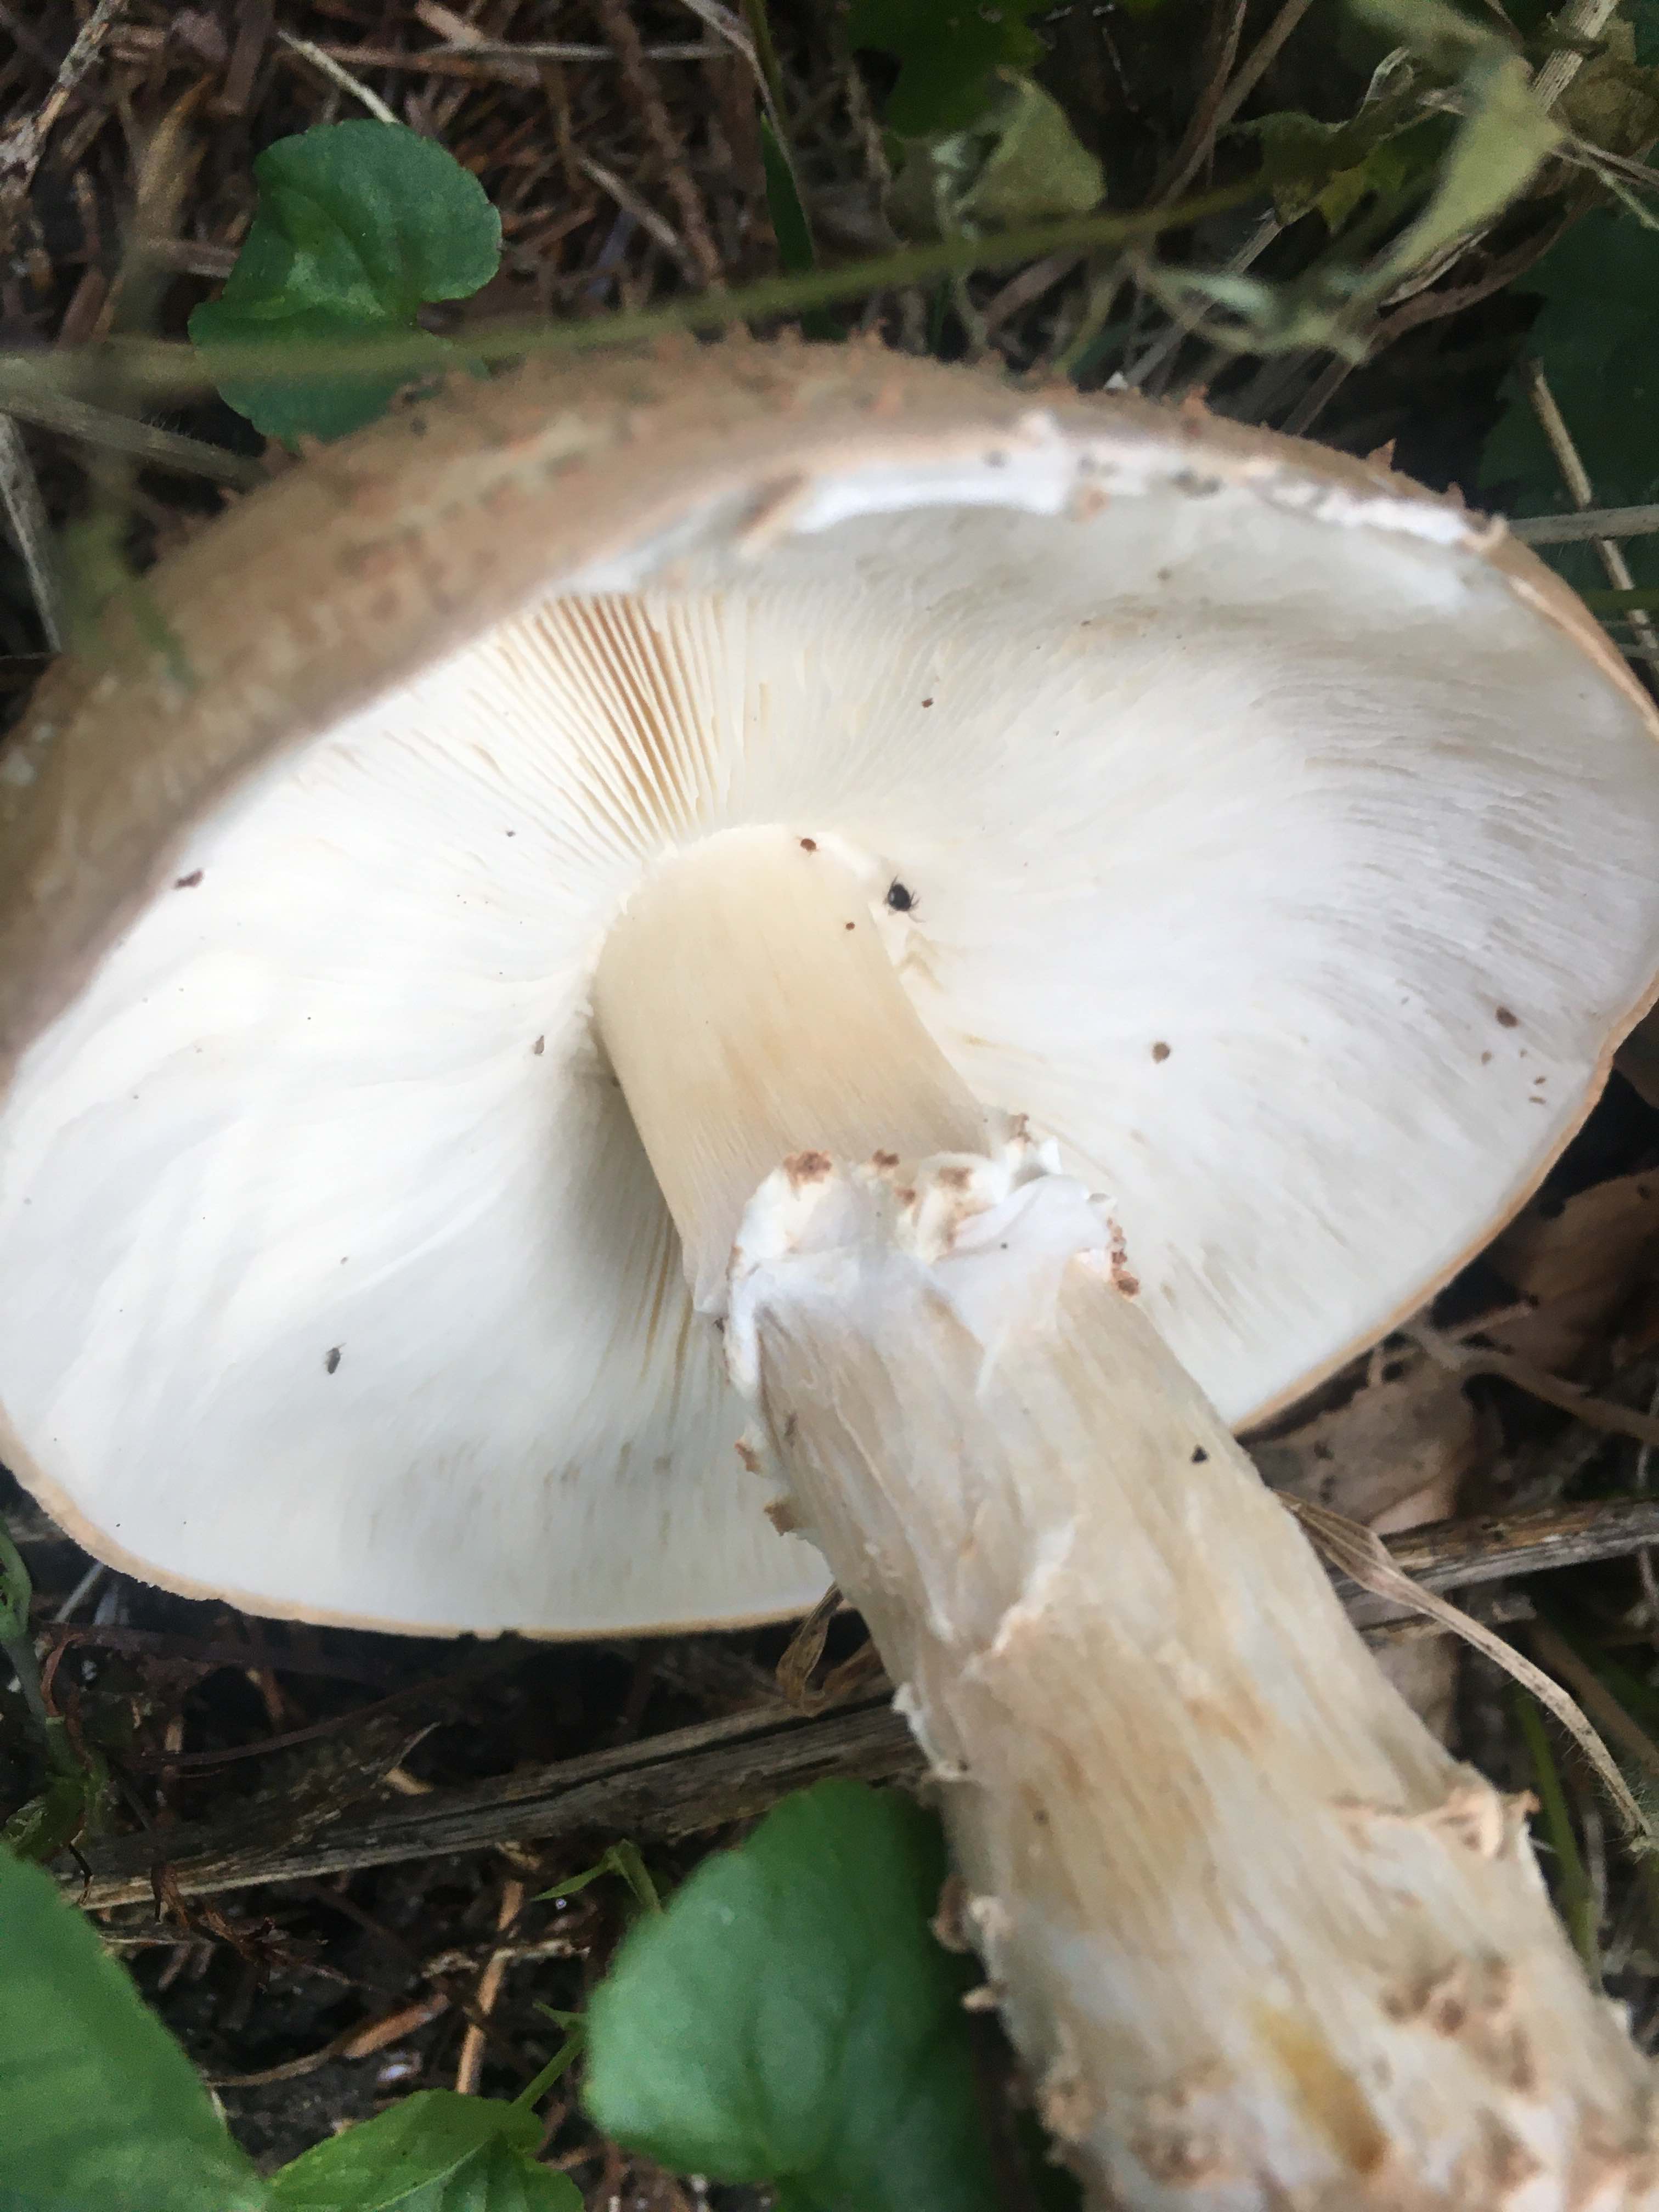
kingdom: Fungi
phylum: Basidiomycota
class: Agaricomycetes
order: Agaricales
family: Agaricaceae
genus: Echinoderma
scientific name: Echinoderma asperum
